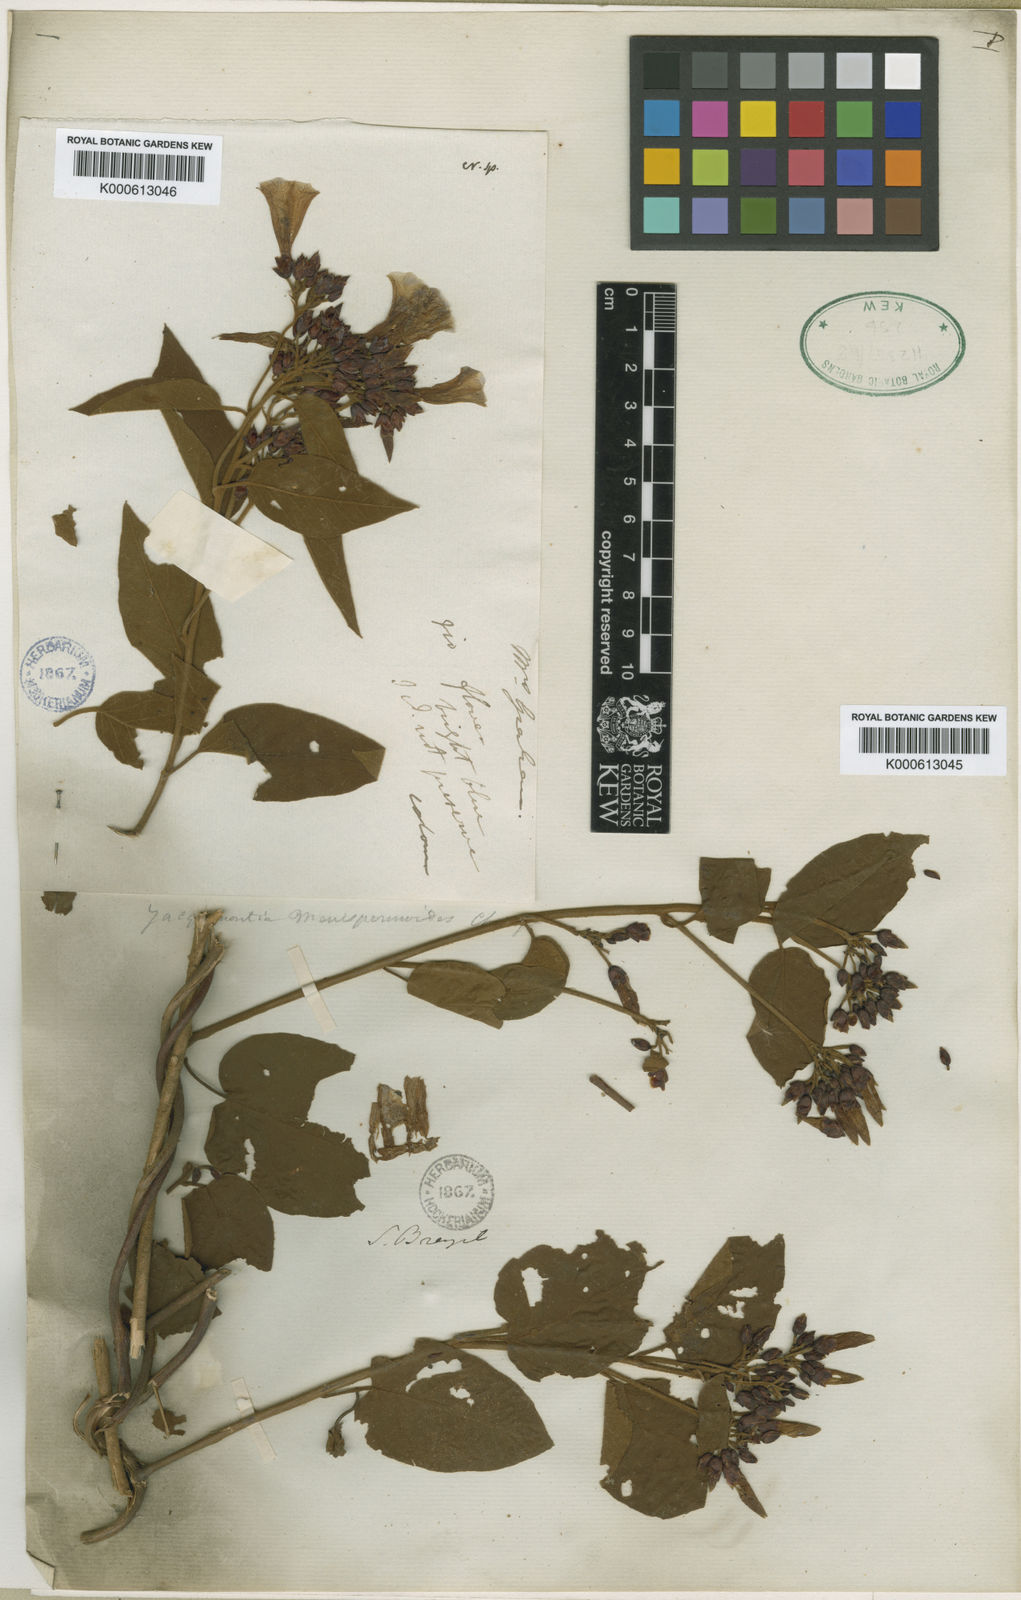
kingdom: Plantae
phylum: Tracheophyta
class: Magnoliopsida
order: Solanales
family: Convolvulaceae
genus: Jacquemontia
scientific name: Jacquemontia holosericea
